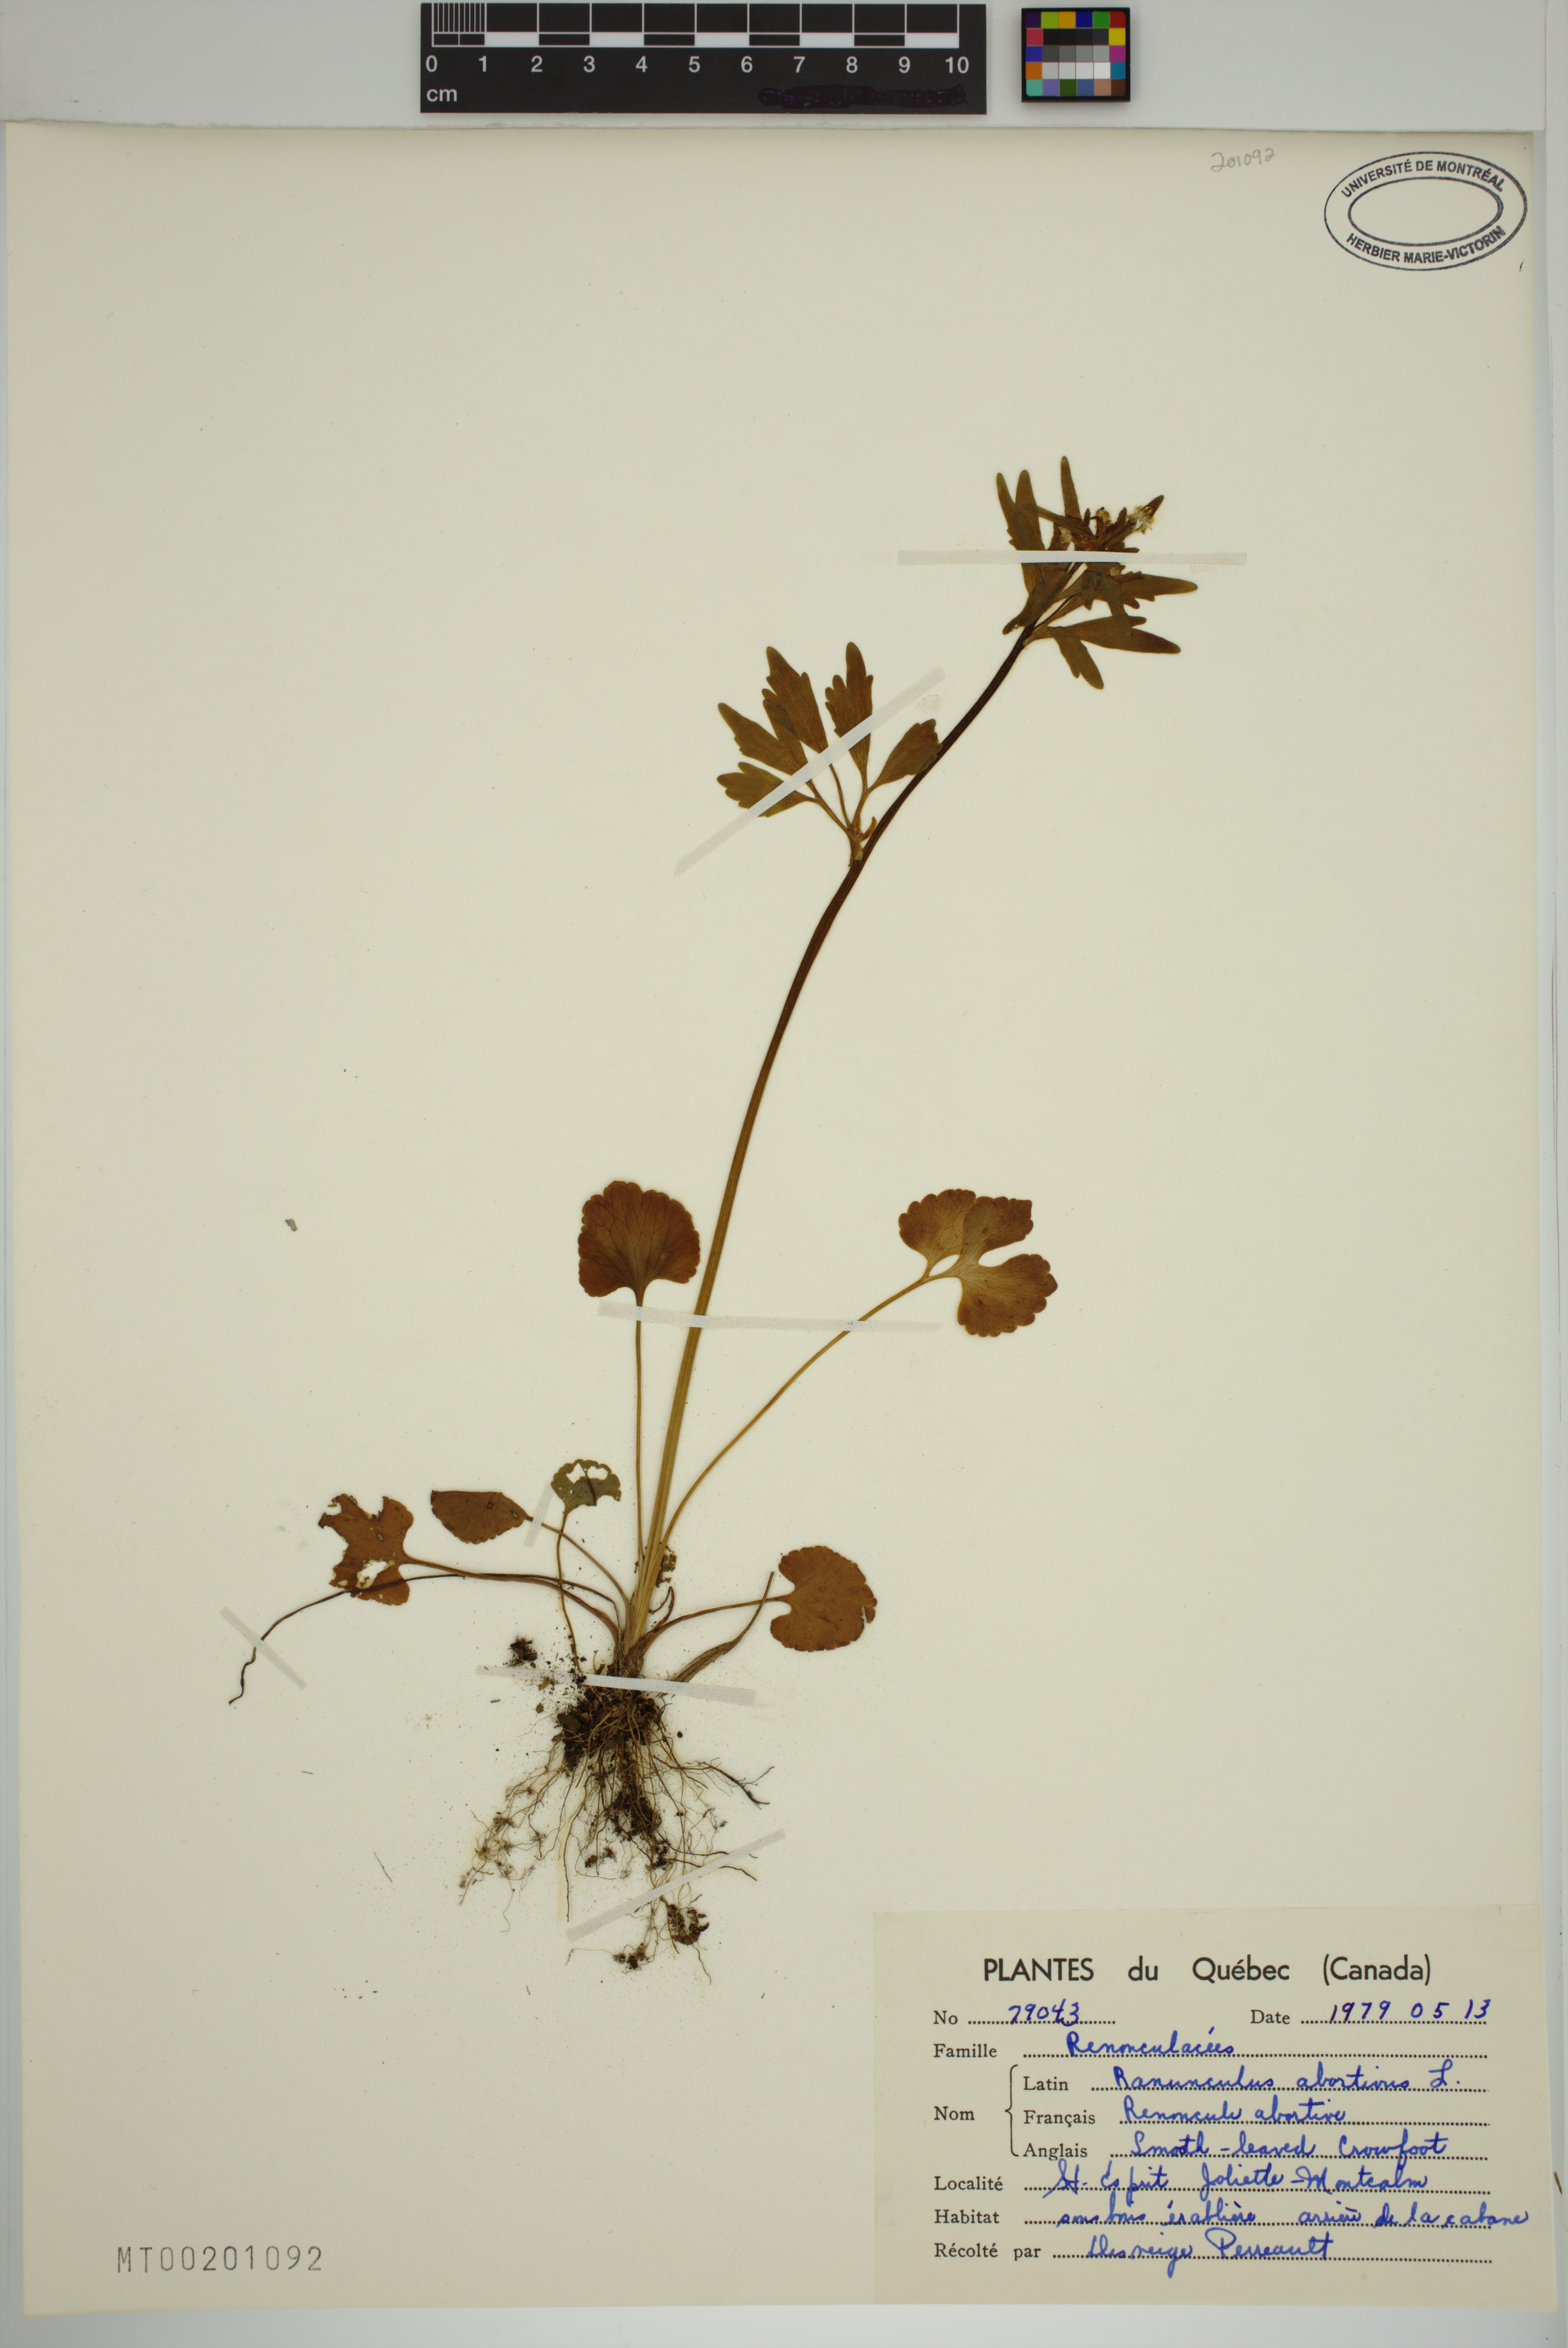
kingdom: Plantae
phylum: Tracheophyta
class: Magnoliopsida
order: Ranunculales
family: Ranunculaceae
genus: Ranunculus
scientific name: Ranunculus abortivus
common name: Early wood buttercup
